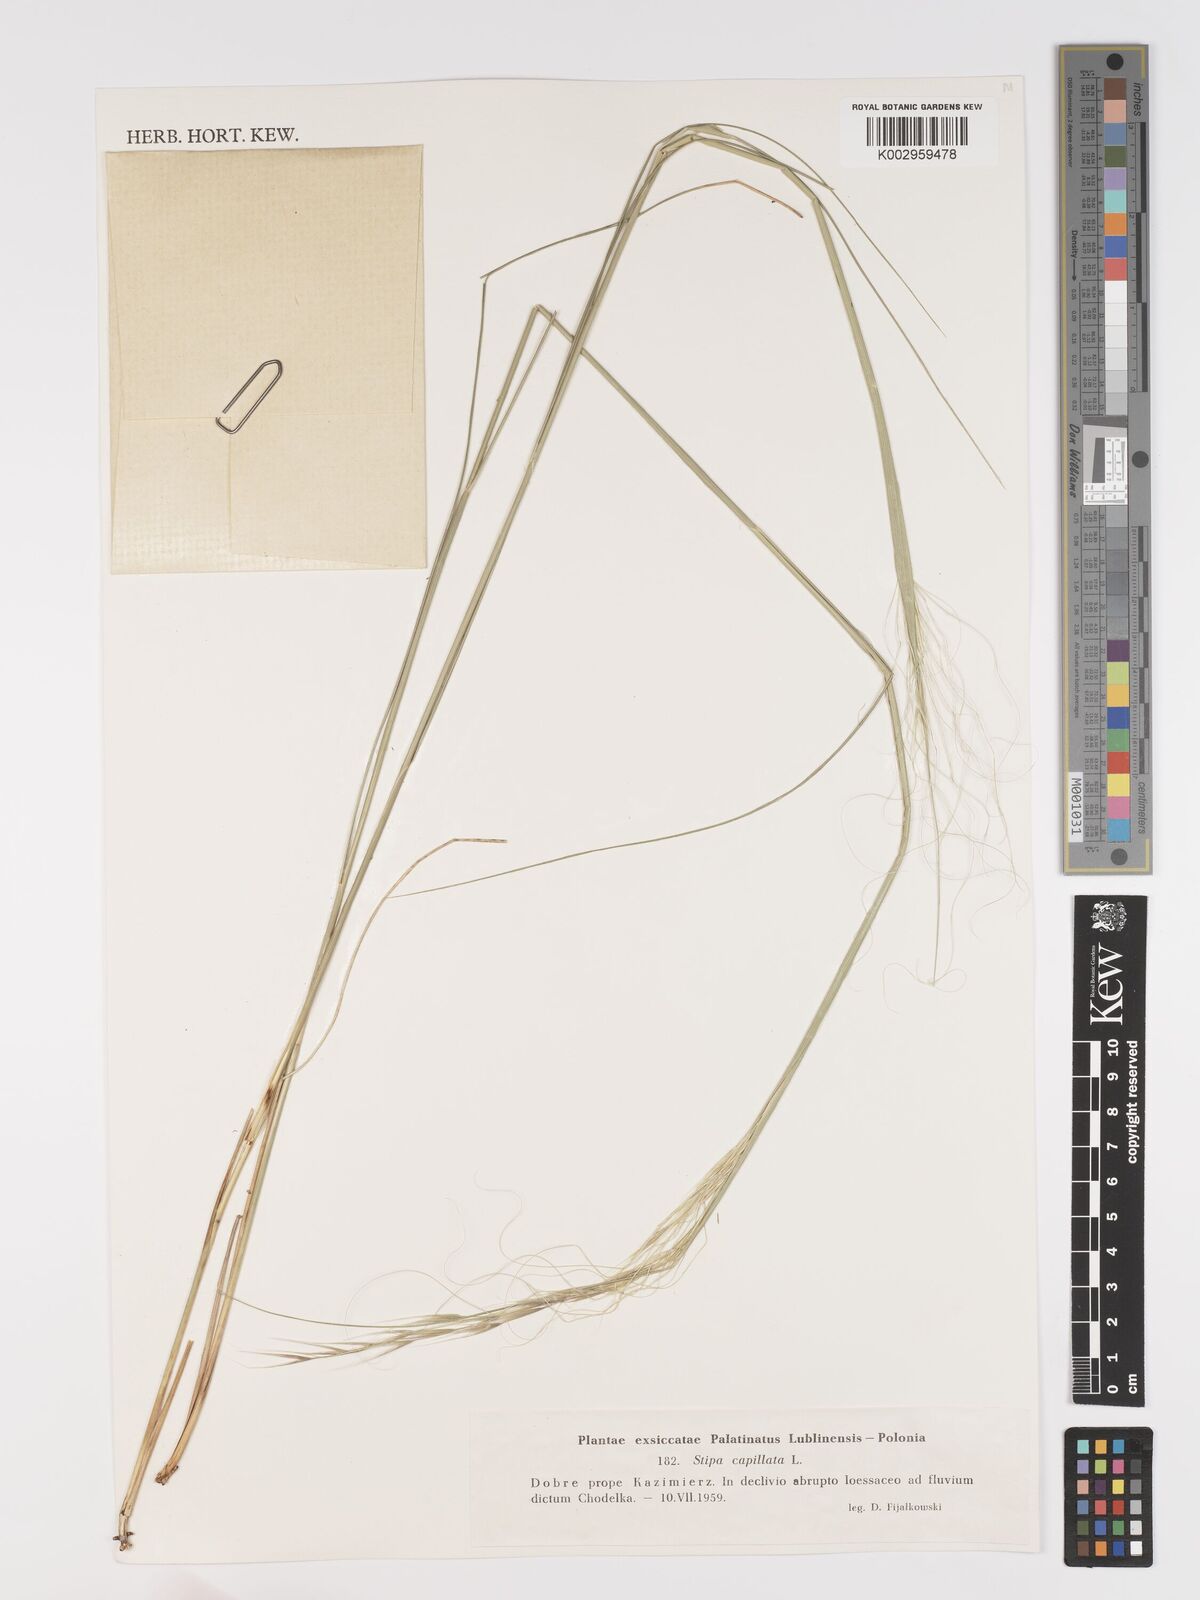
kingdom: Plantae
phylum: Tracheophyta
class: Liliopsida
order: Poales
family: Poaceae
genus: Stipa
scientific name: Stipa capillata
